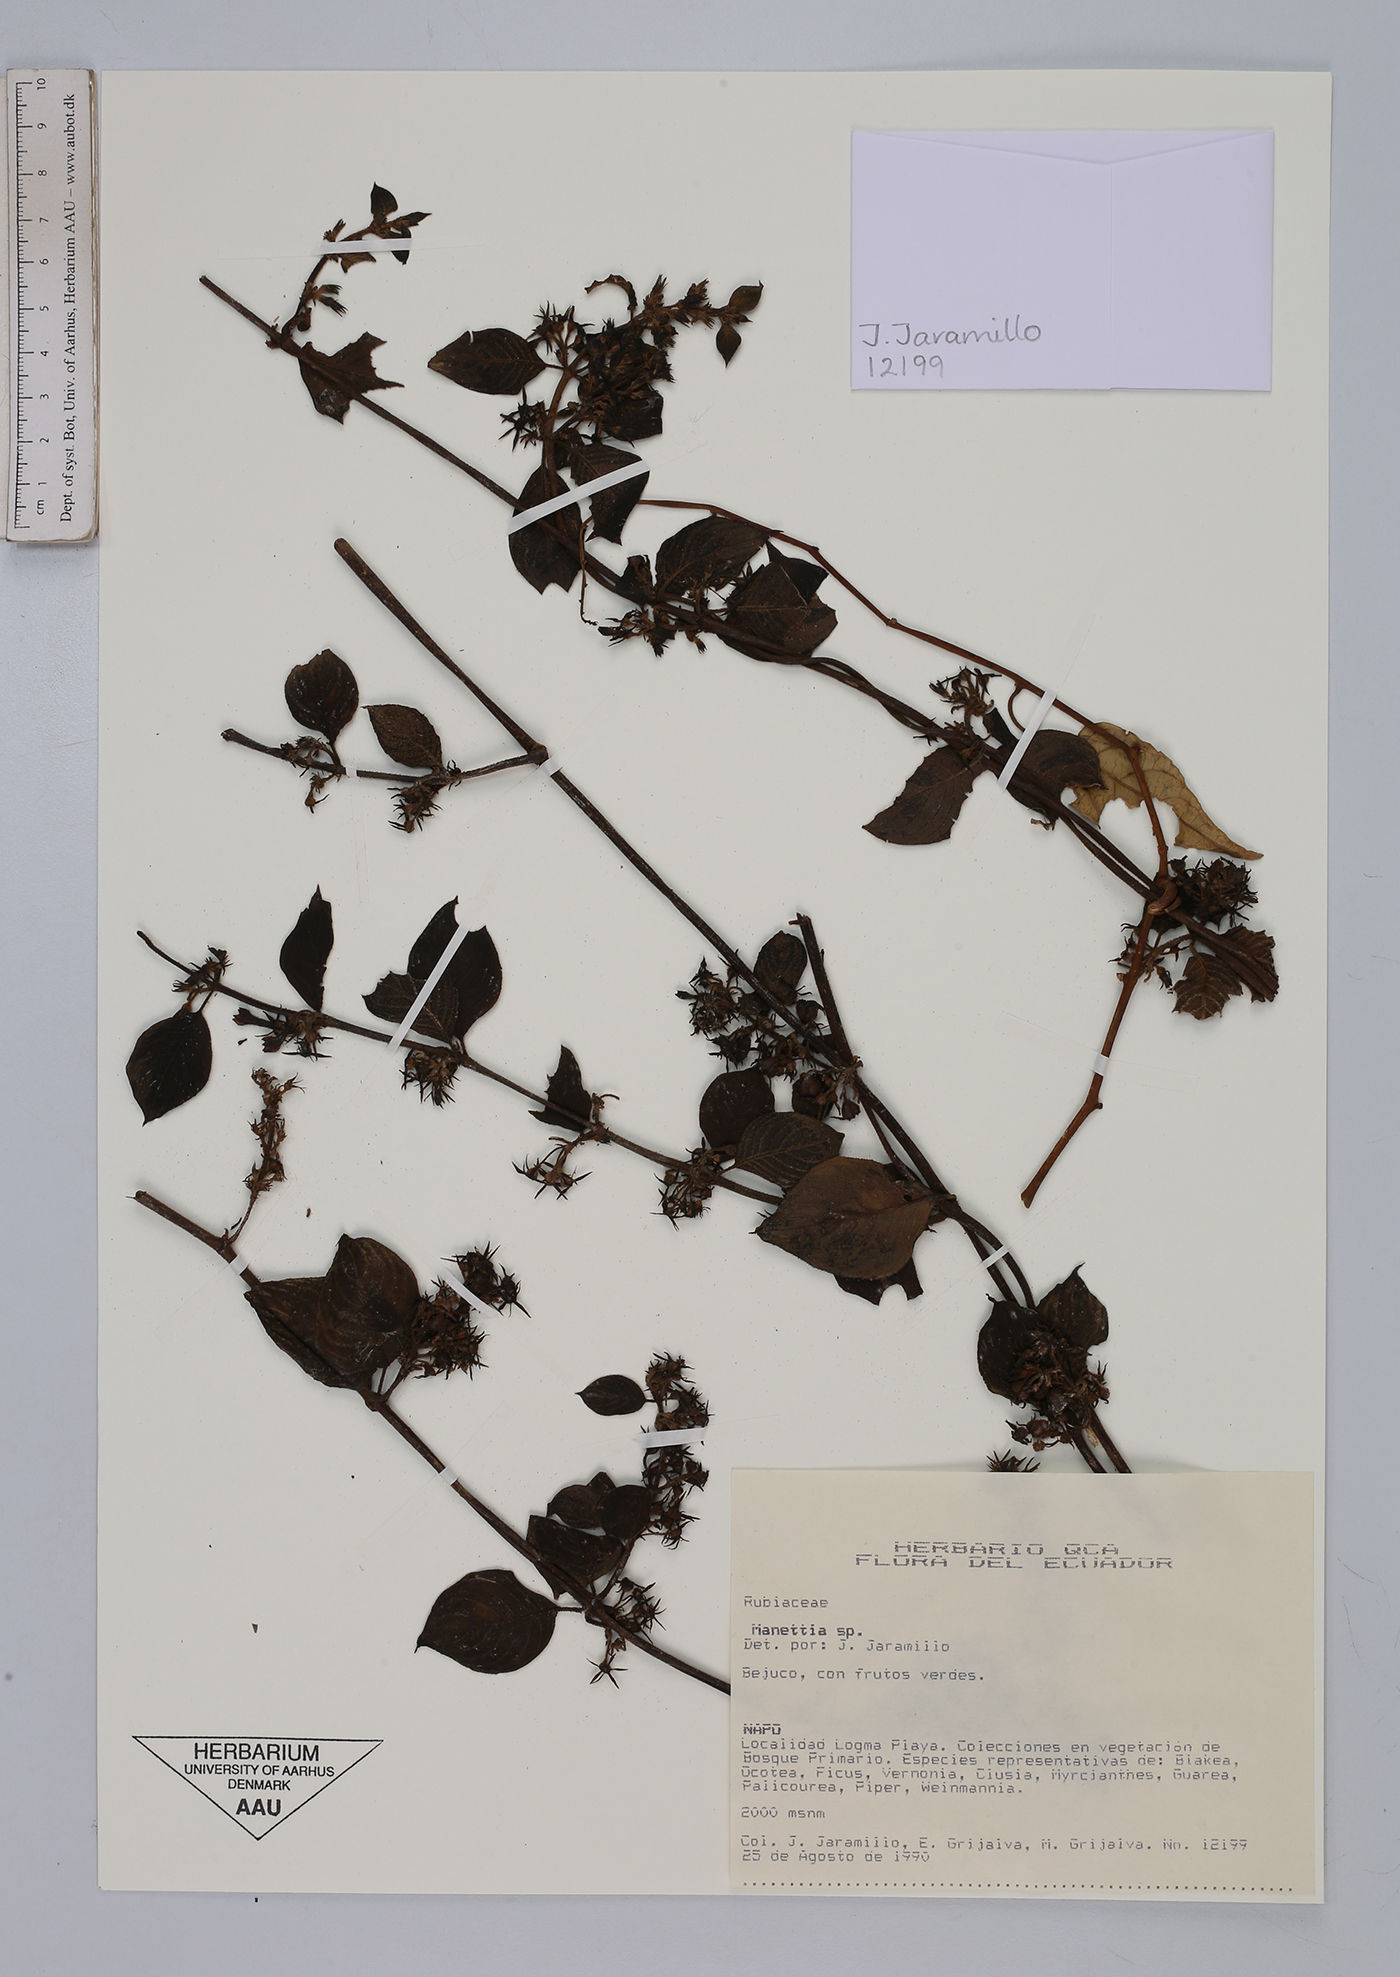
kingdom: Plantae
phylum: Tracheophyta
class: Magnoliopsida
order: Gentianales
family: Rubiaceae
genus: Manettia
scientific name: Manettia
